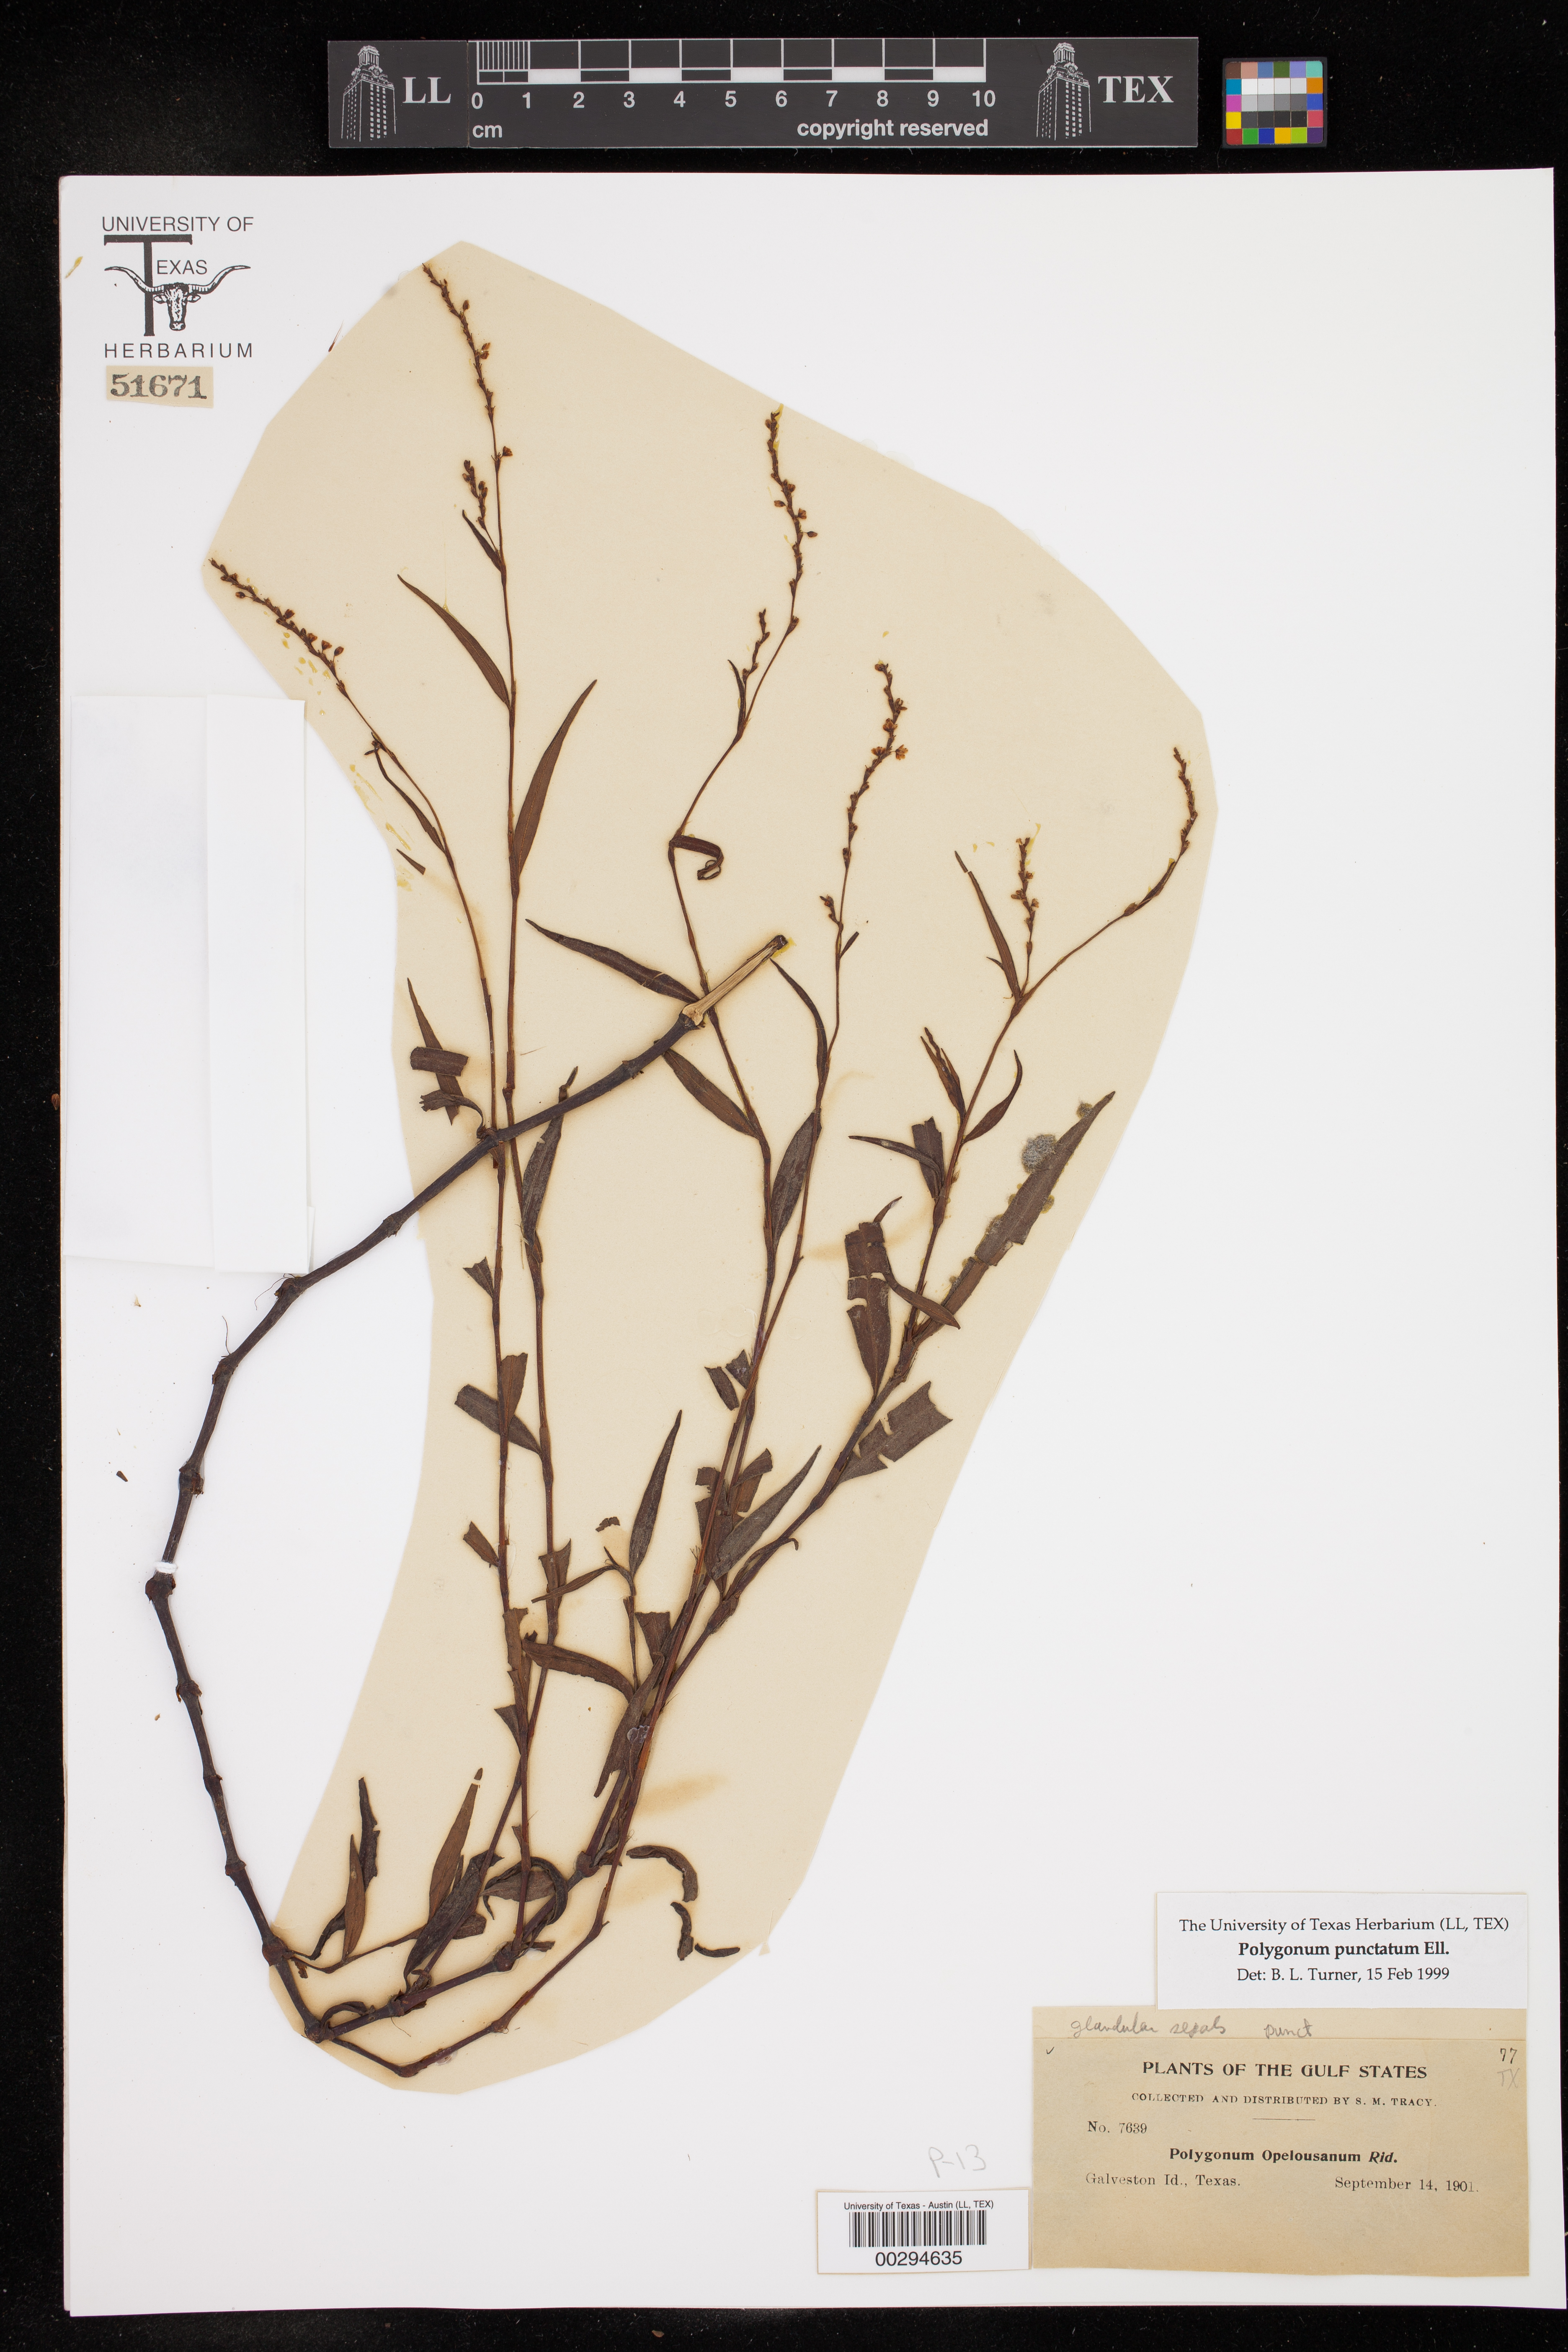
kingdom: Plantae
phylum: Tracheophyta
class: Magnoliopsida
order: Caryophyllales
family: Polygonaceae
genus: Persicaria
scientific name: Persicaria punctata
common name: Dotted smartweed
